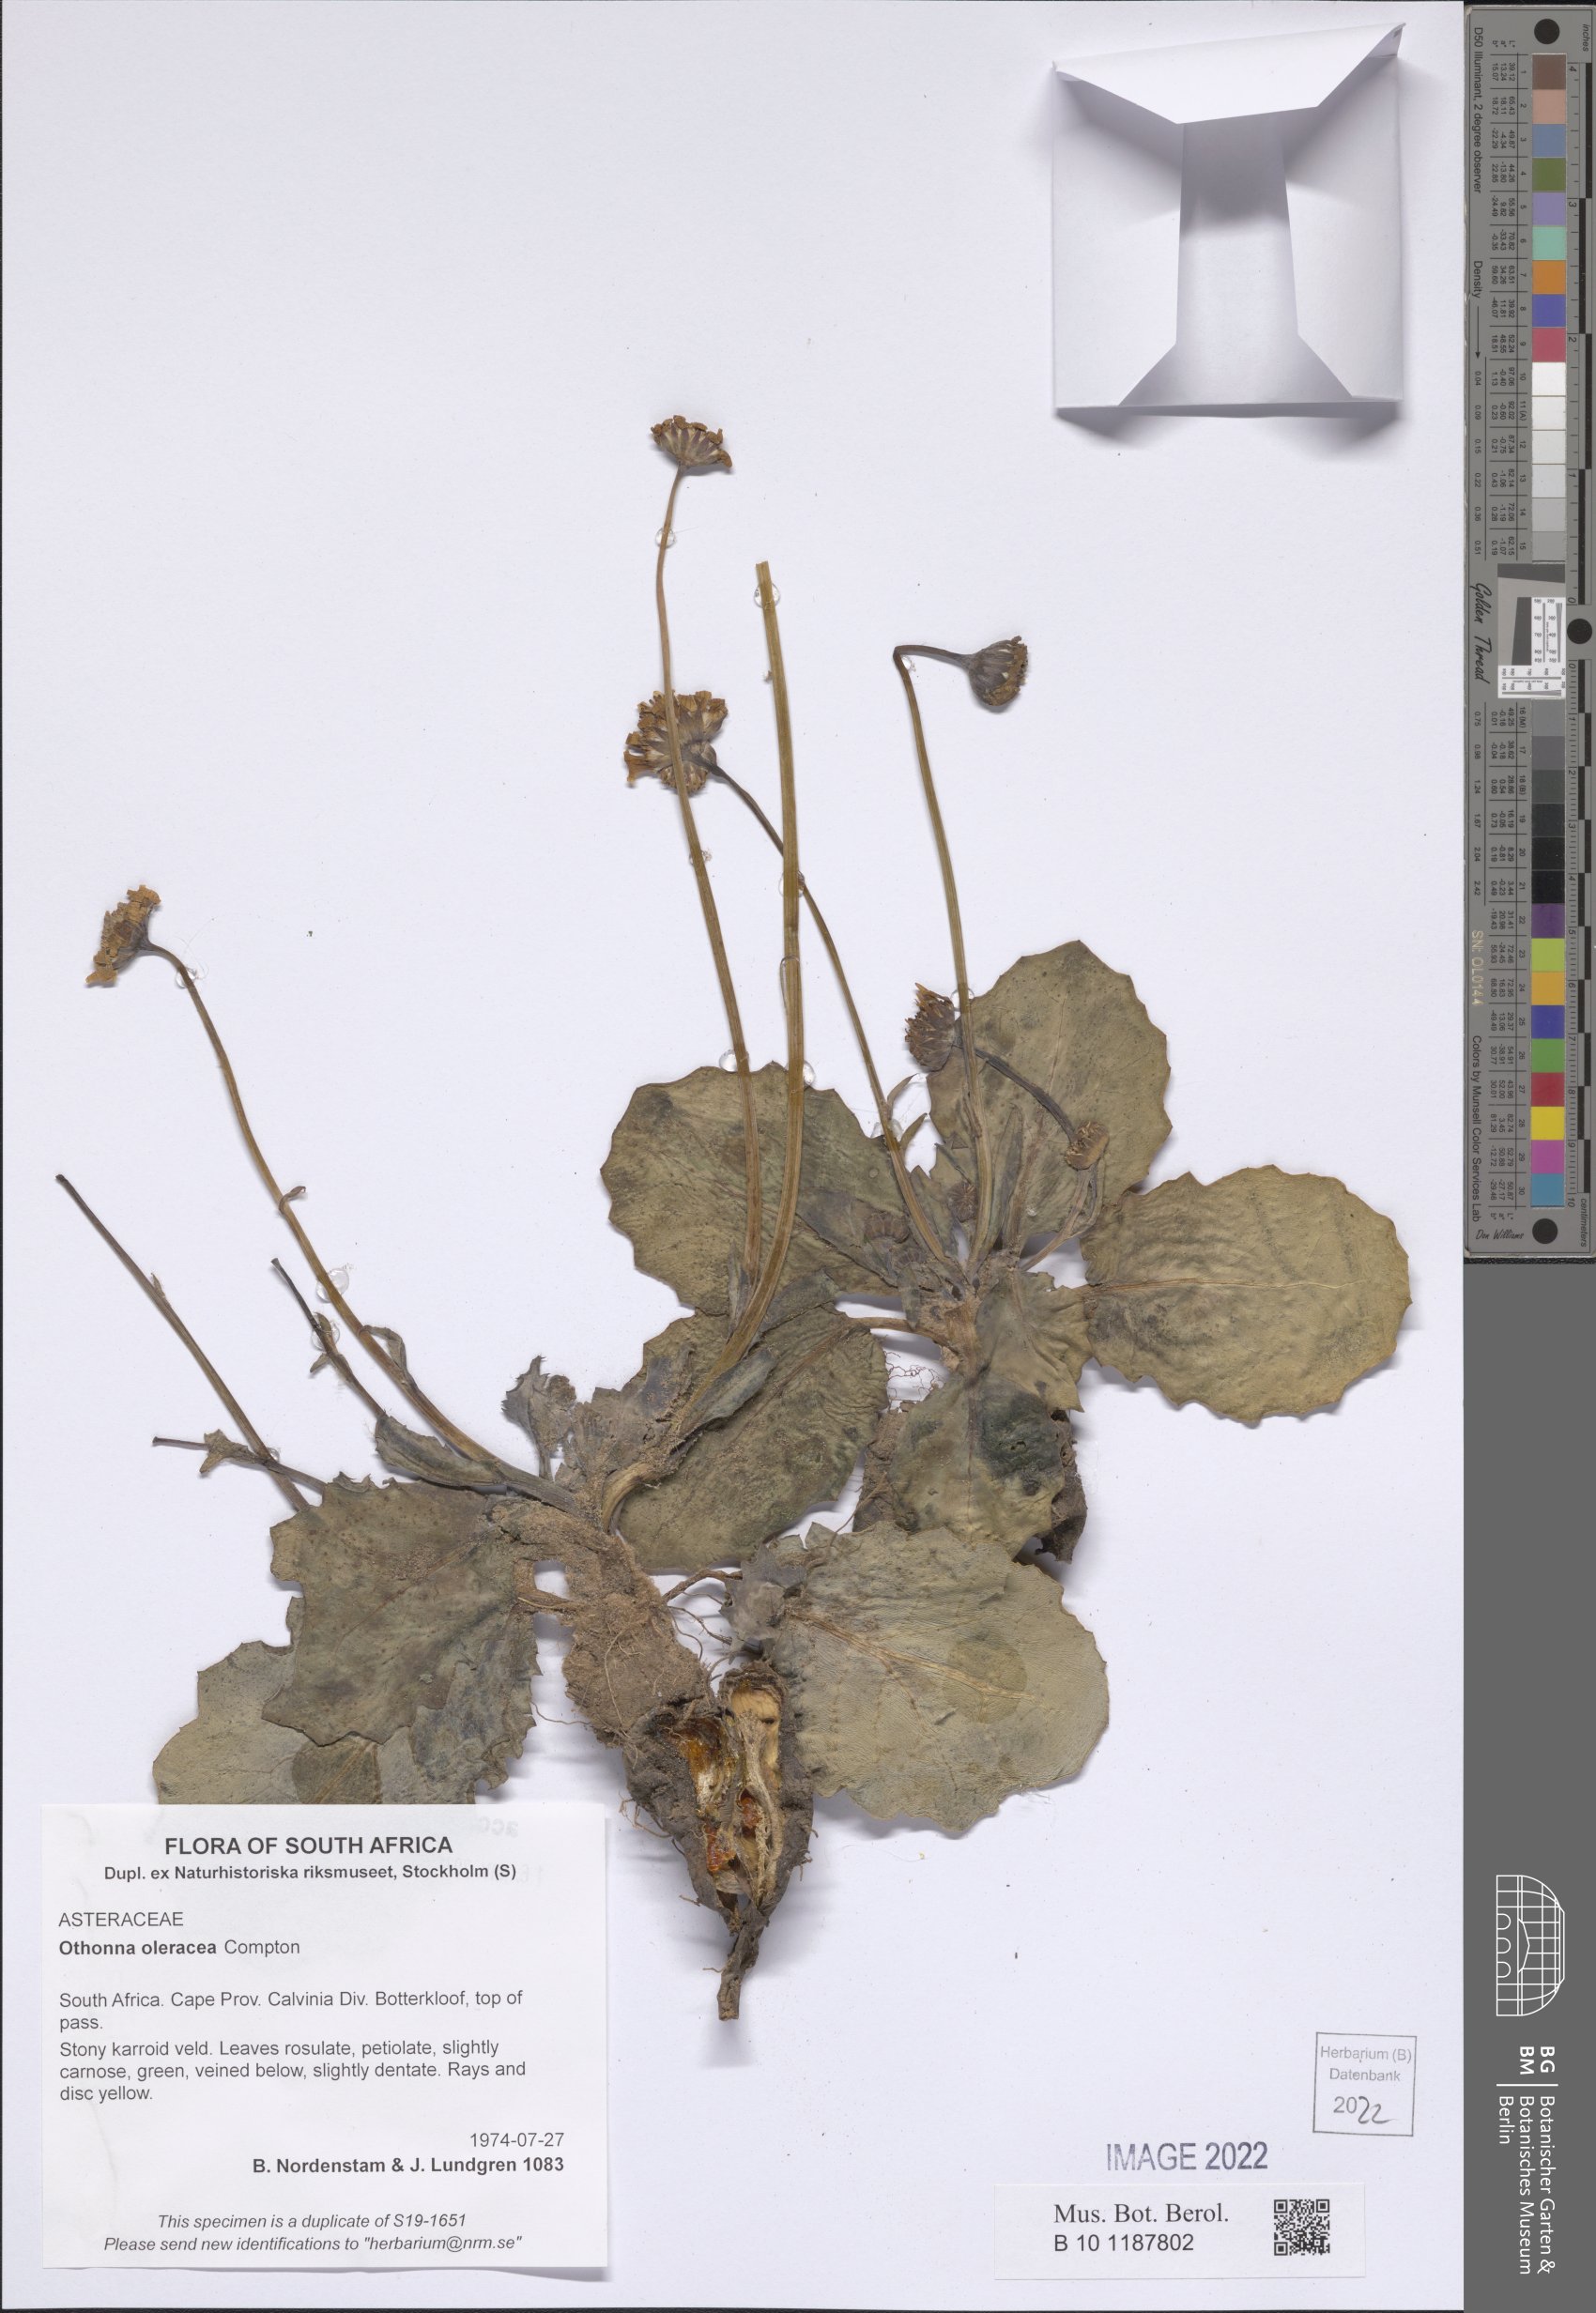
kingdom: Plantae
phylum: Tracheophyta
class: Magnoliopsida
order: Asterales
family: Asteraceae
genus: Othonna
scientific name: Othonna oleracea
